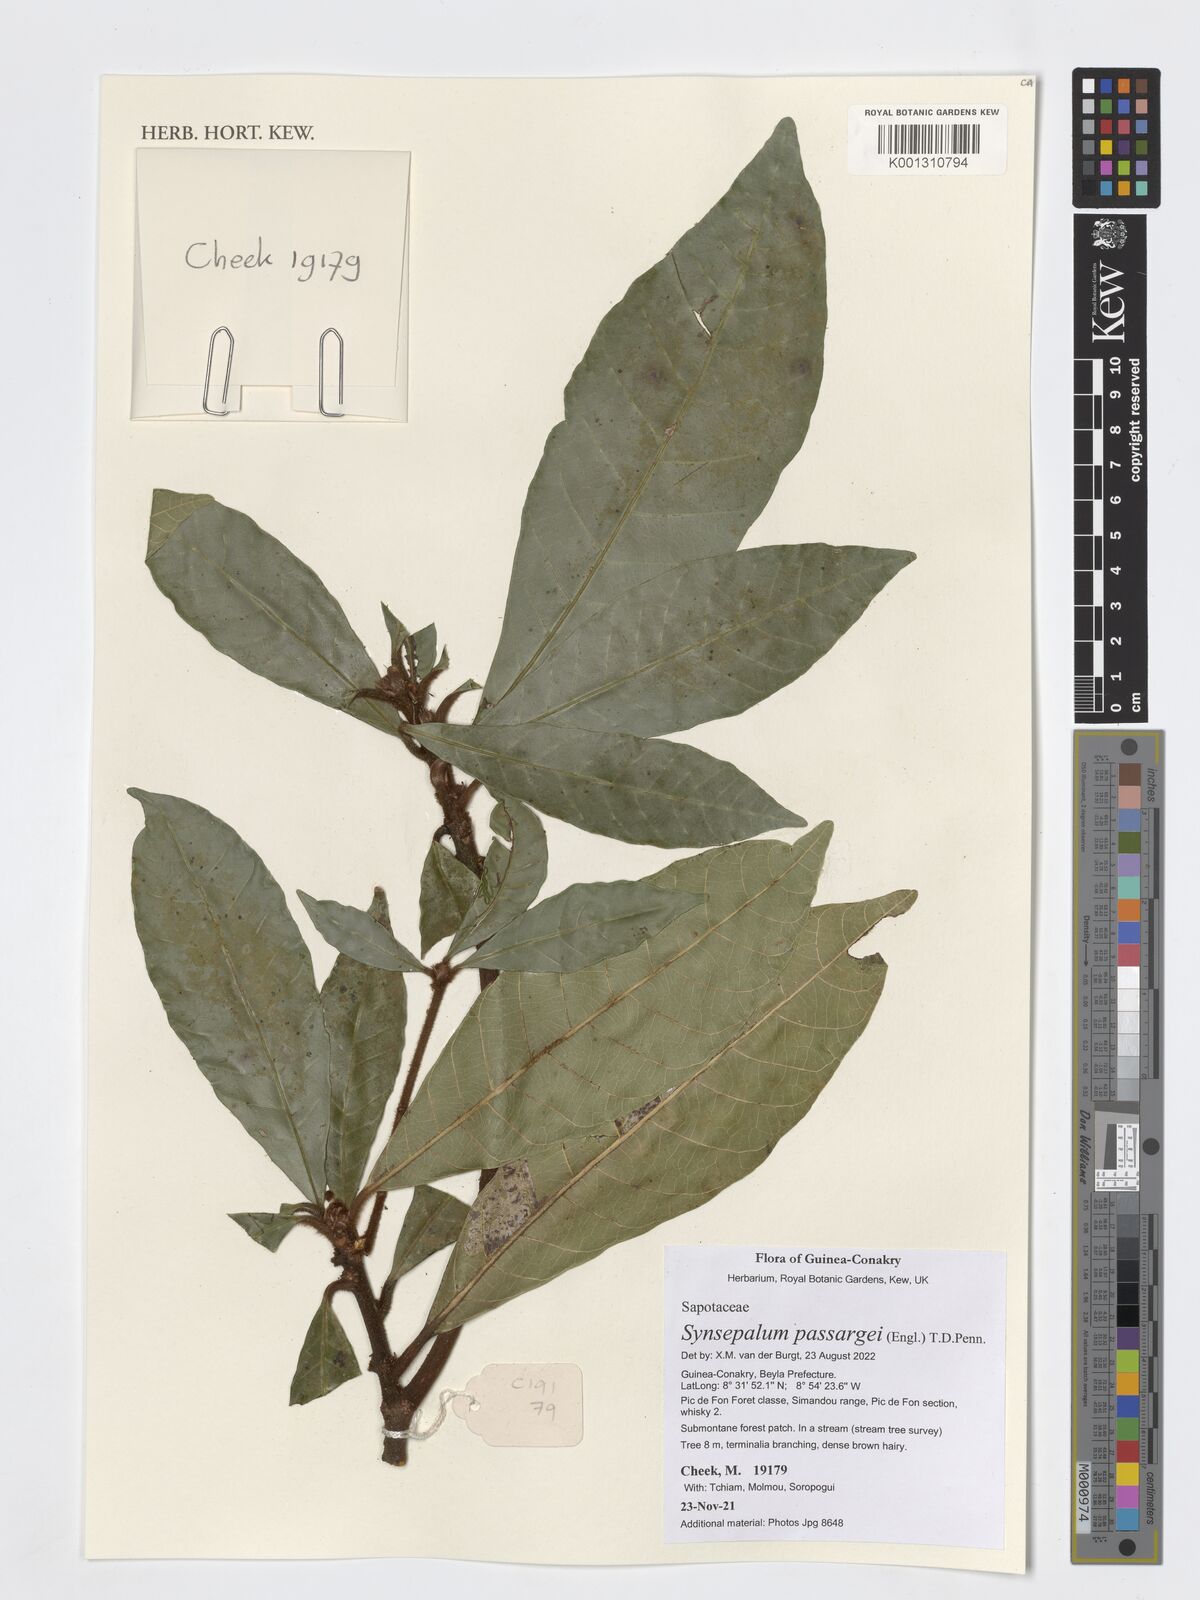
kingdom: Plantae
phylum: Tracheophyta
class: Magnoliopsida
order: Ericales
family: Sapotaceae
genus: Synsepalum
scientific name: Synsepalum passargei
